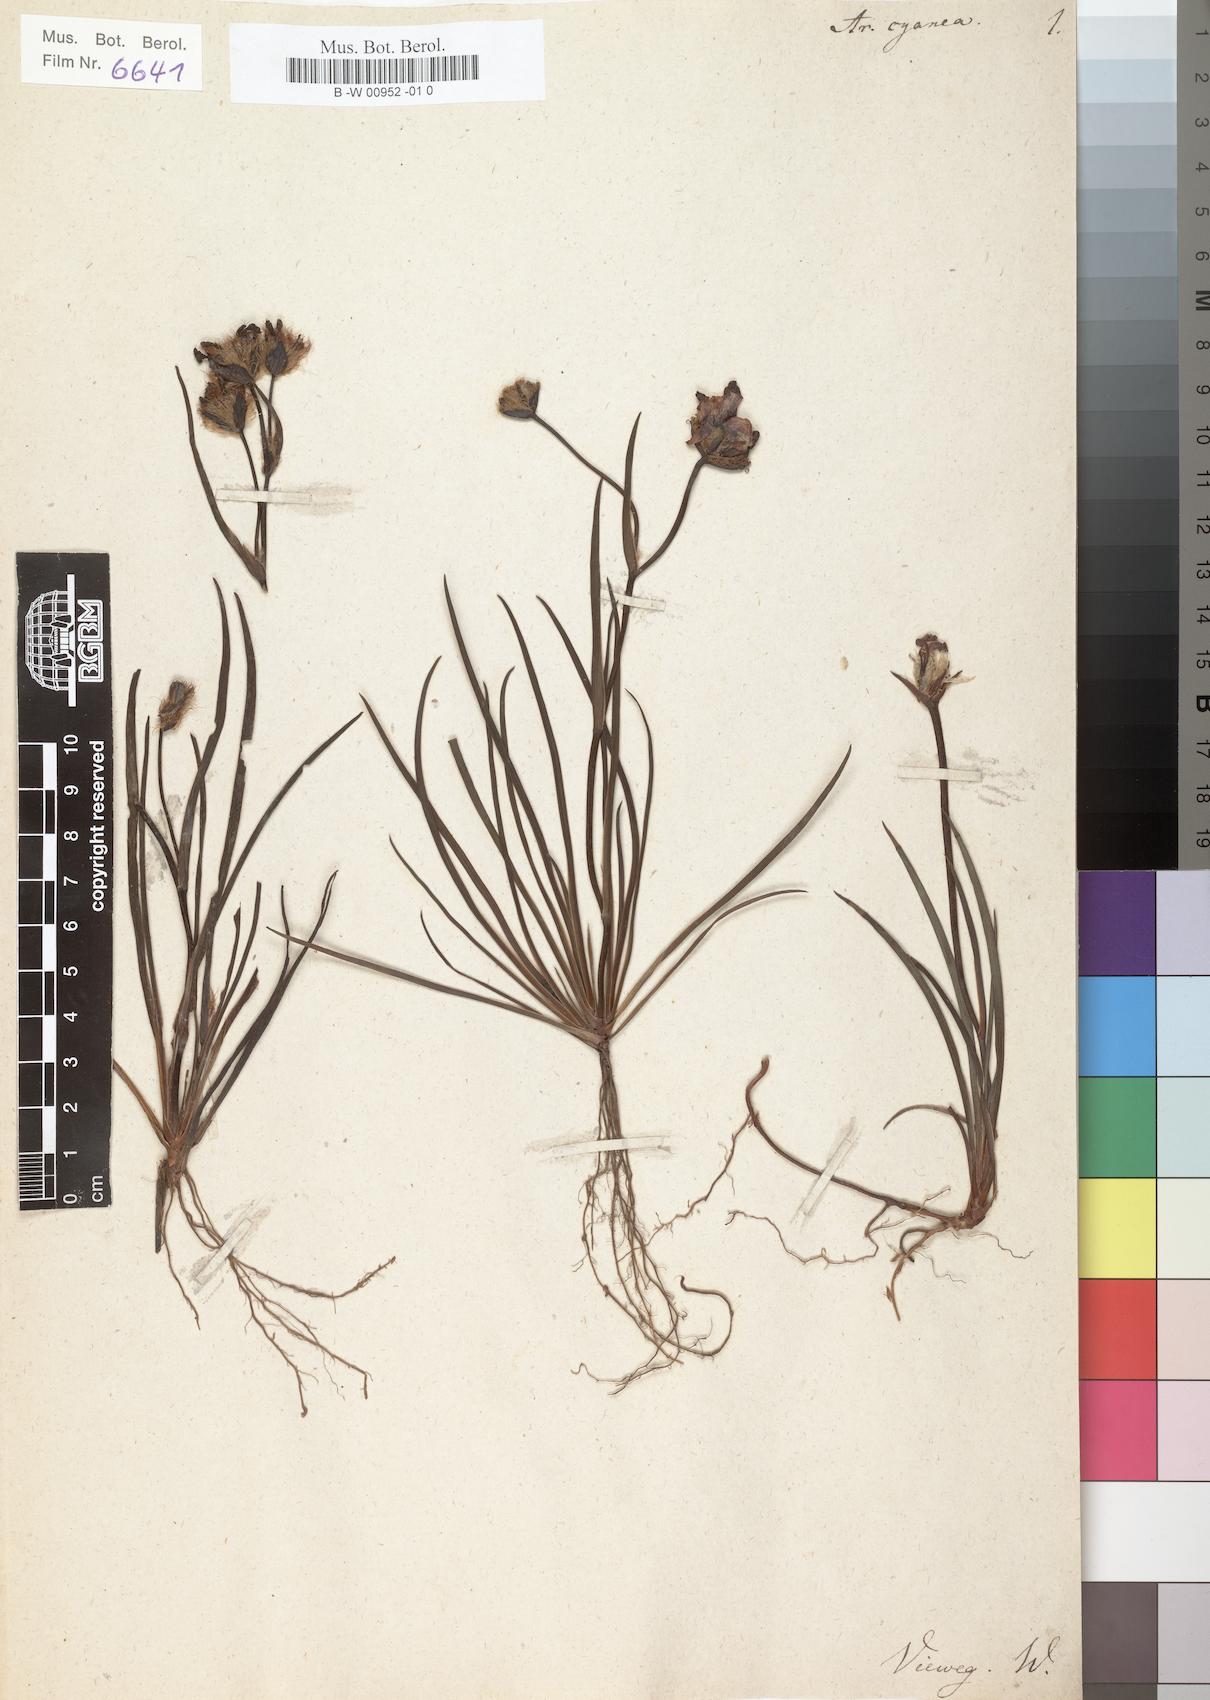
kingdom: Plantae
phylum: Tracheophyta
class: Liliopsida
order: Asparagales
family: Iridaceae
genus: Aristea
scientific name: Aristea
